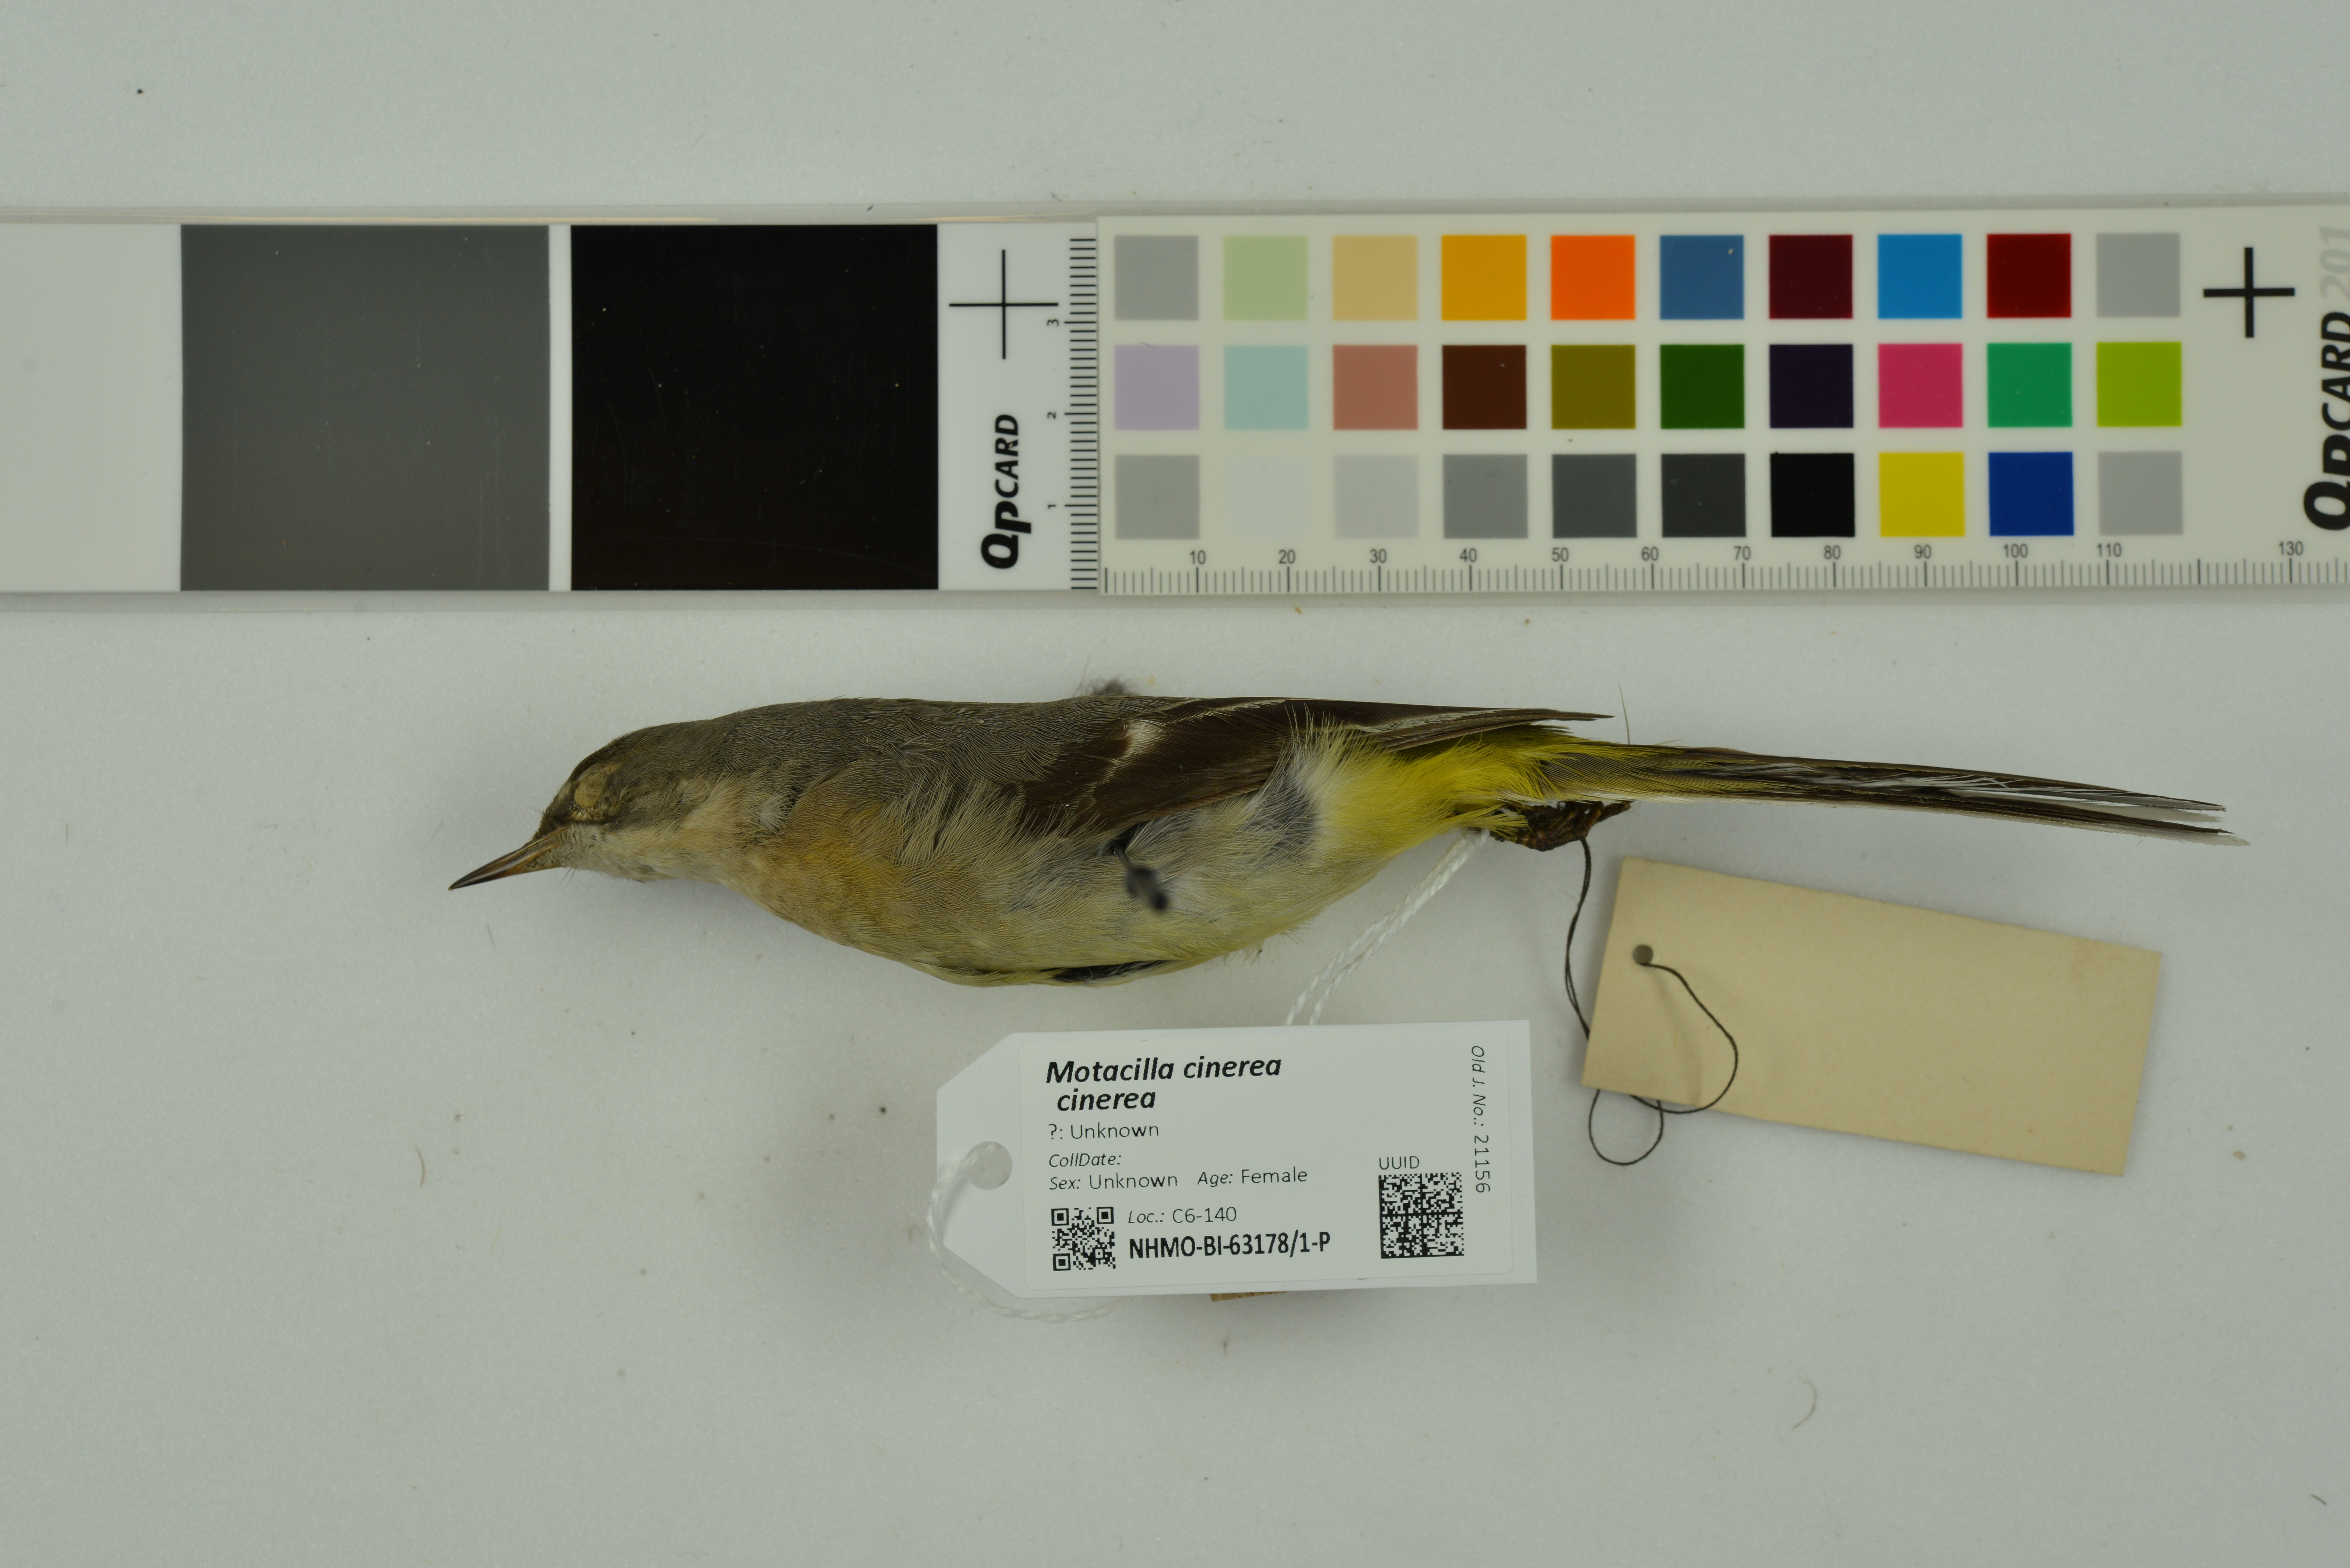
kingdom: Animalia
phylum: Chordata
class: Aves
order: Passeriformes
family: Motacillidae
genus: Motacilla
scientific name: Motacilla cinerea
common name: Grey wagtail
